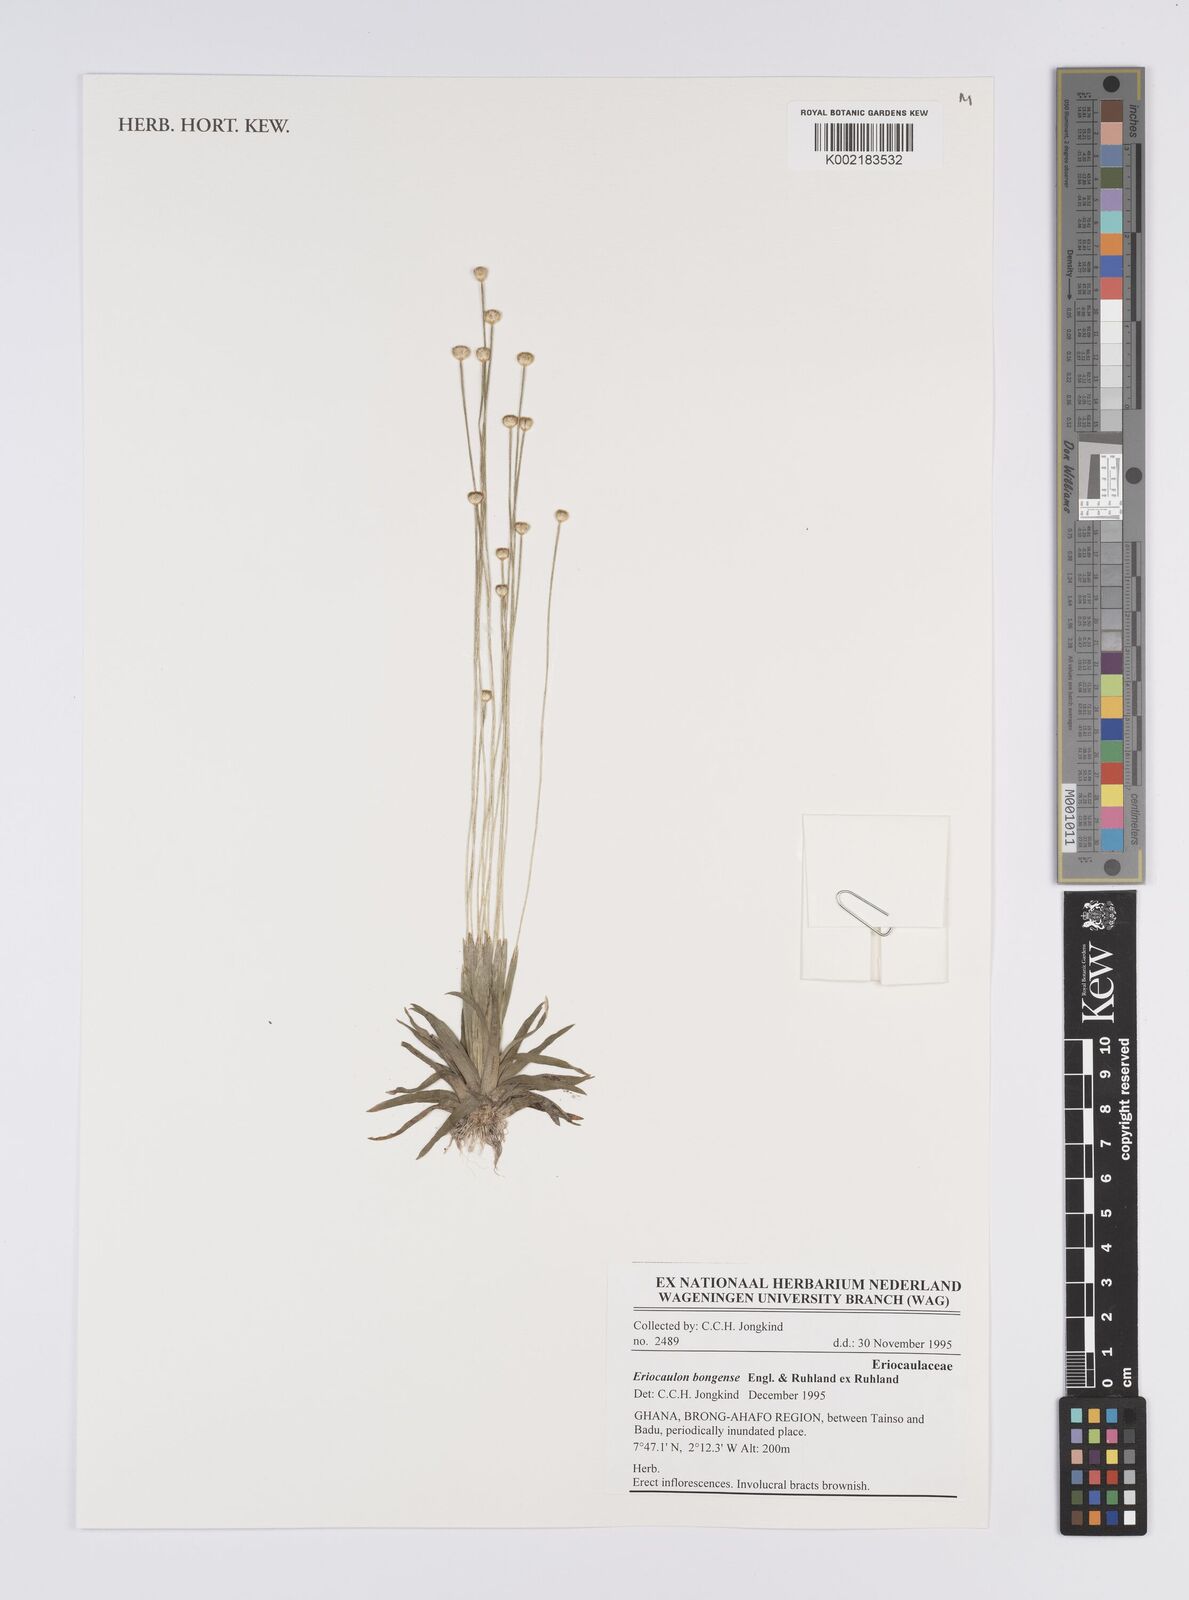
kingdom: Plantae
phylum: Tracheophyta
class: Liliopsida
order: Poales
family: Eriocaulaceae
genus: Eriocaulon
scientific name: Eriocaulon bongense
